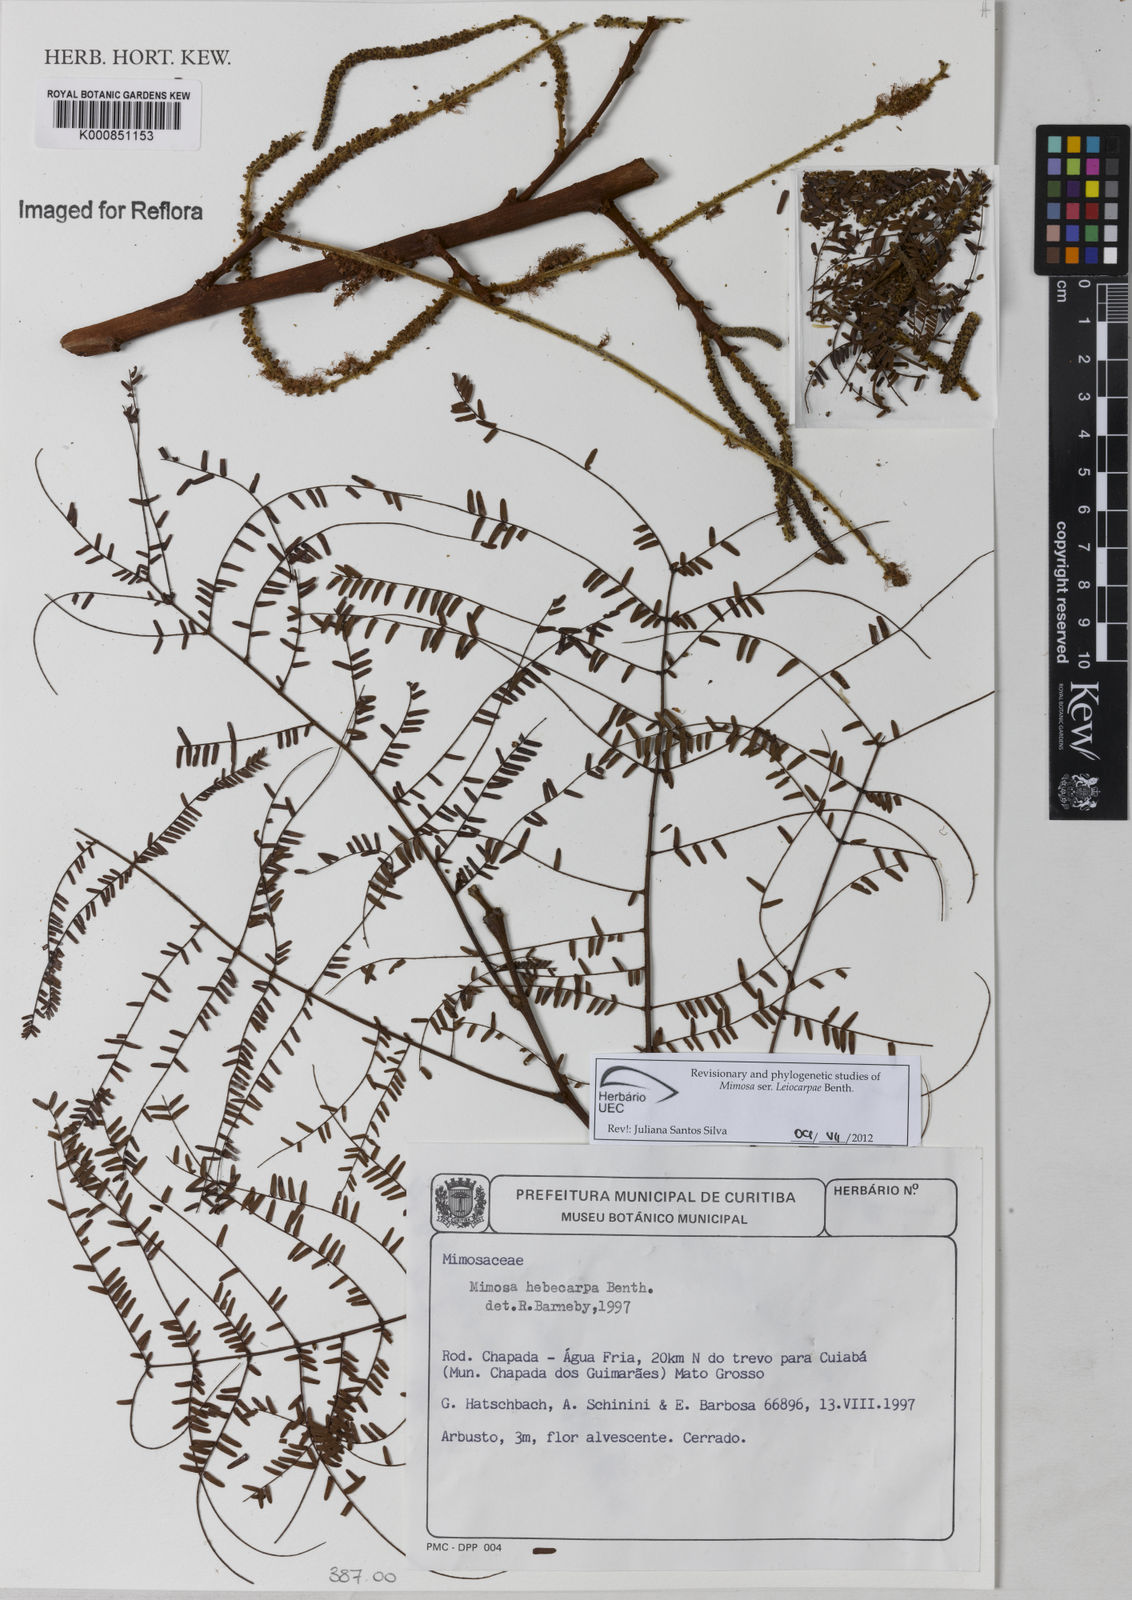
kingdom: Plantae
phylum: Tracheophyta
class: Magnoliopsida
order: Fabales
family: Fabaceae
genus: Mimosa
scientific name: Mimosa hebecarpa
